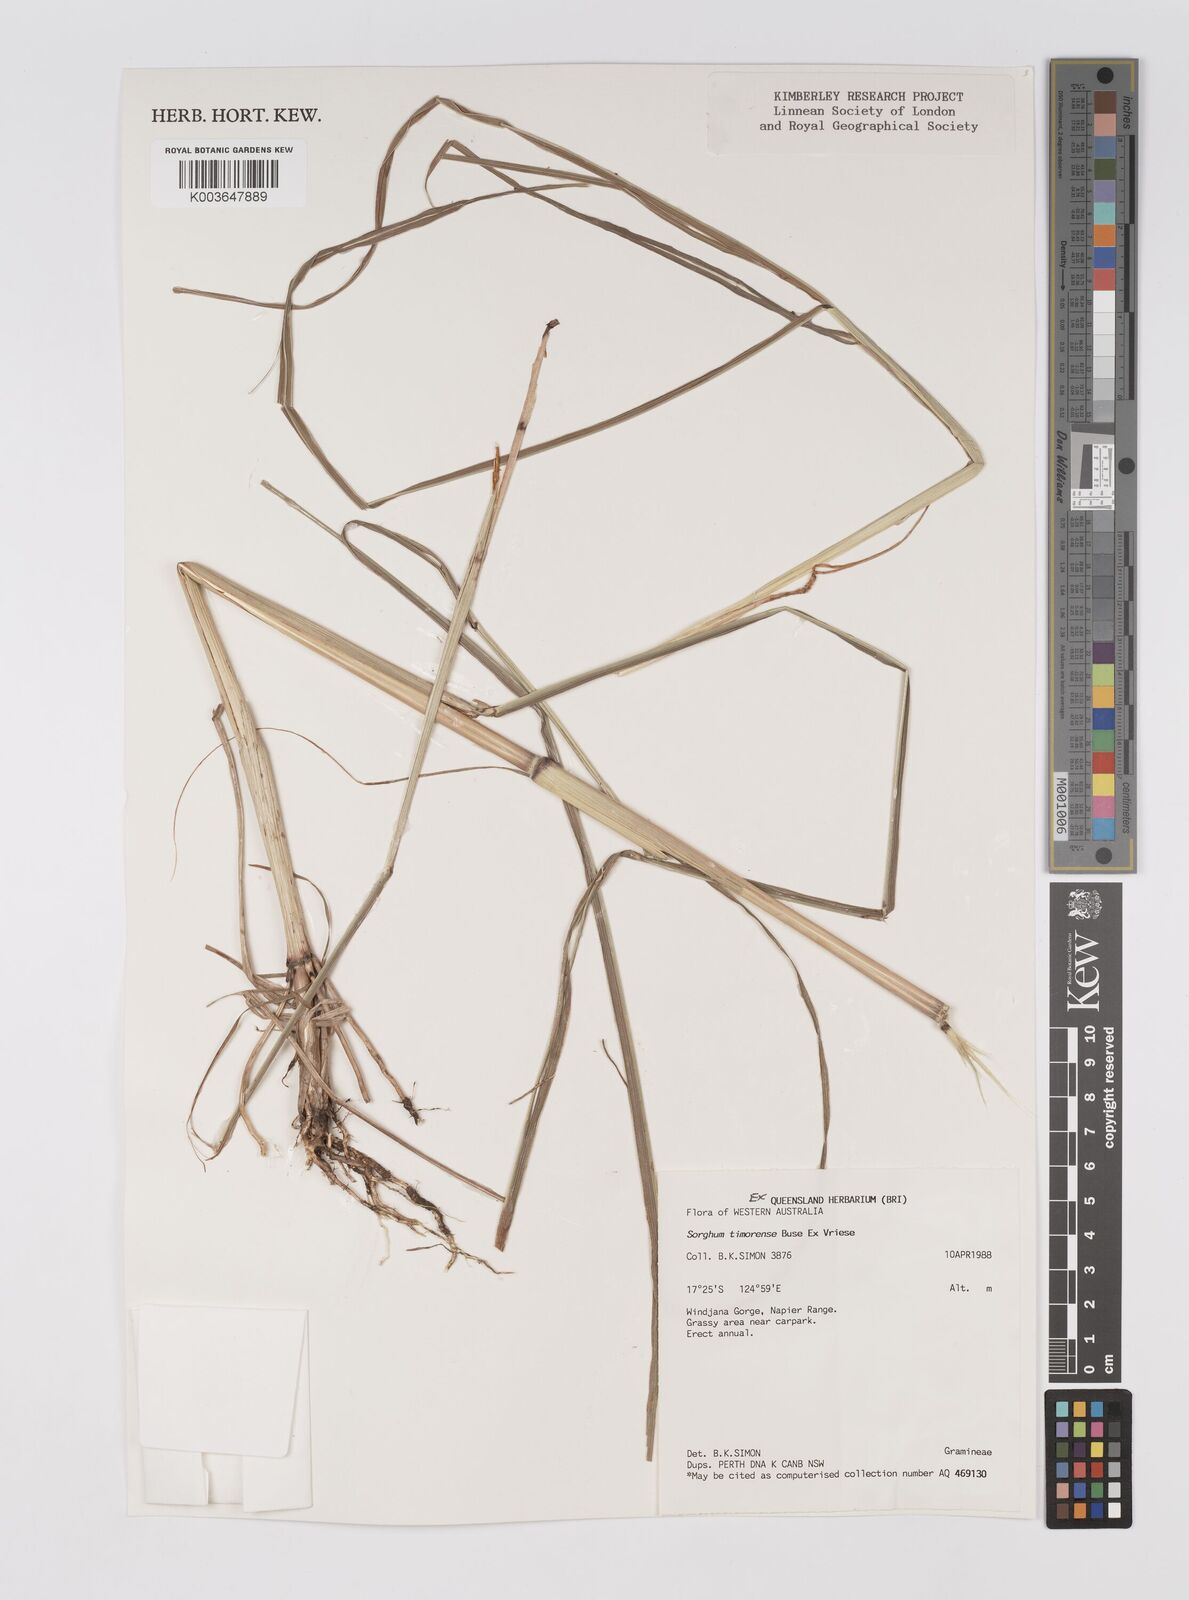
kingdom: Plantae
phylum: Tracheophyta
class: Liliopsida
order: Poales
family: Poaceae
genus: Sarga
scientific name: Sarga timorensis
